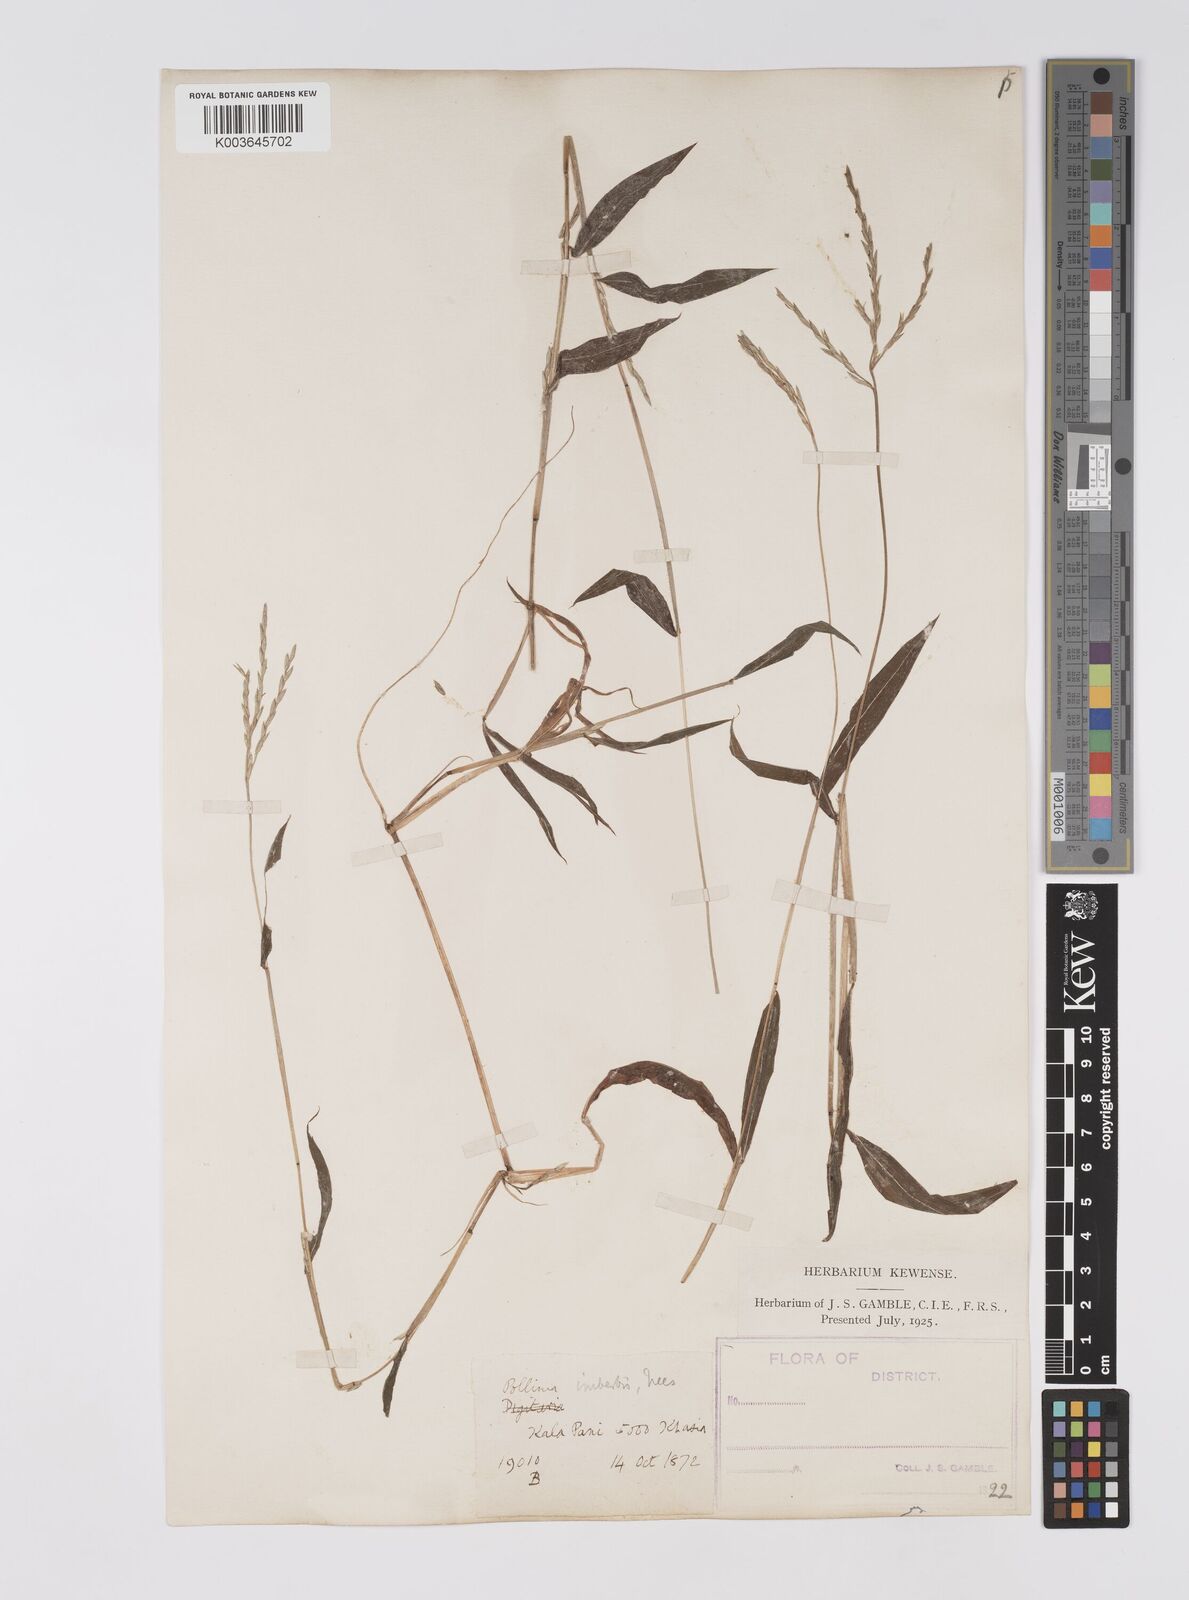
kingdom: Plantae
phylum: Tracheophyta
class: Liliopsida
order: Poales
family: Poaceae
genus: Microstegium
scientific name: Microstegium vimineum
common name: Japanese stiltgrass
